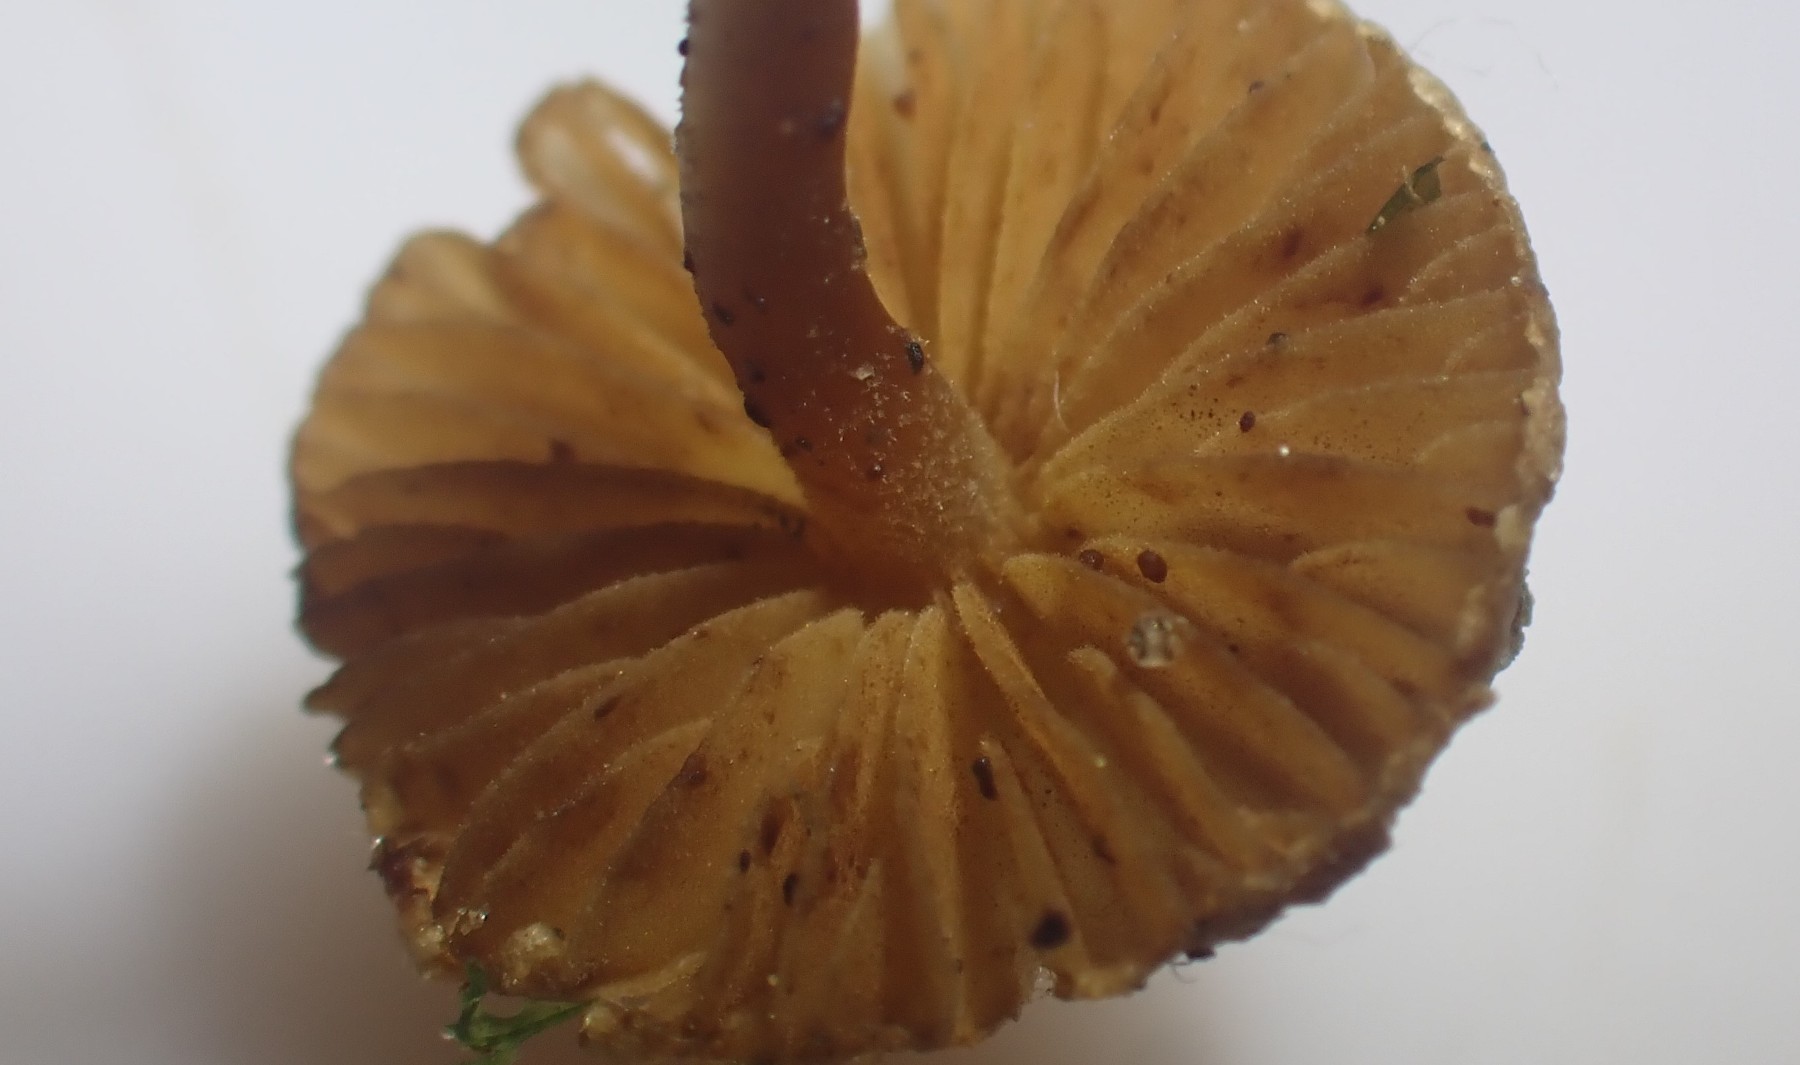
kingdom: Fungi
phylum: Basidiomycota
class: Agaricomycetes
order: Agaricales
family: Inocybaceae
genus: Inocybe
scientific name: Inocybe petiginosa
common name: liden trævlhat
